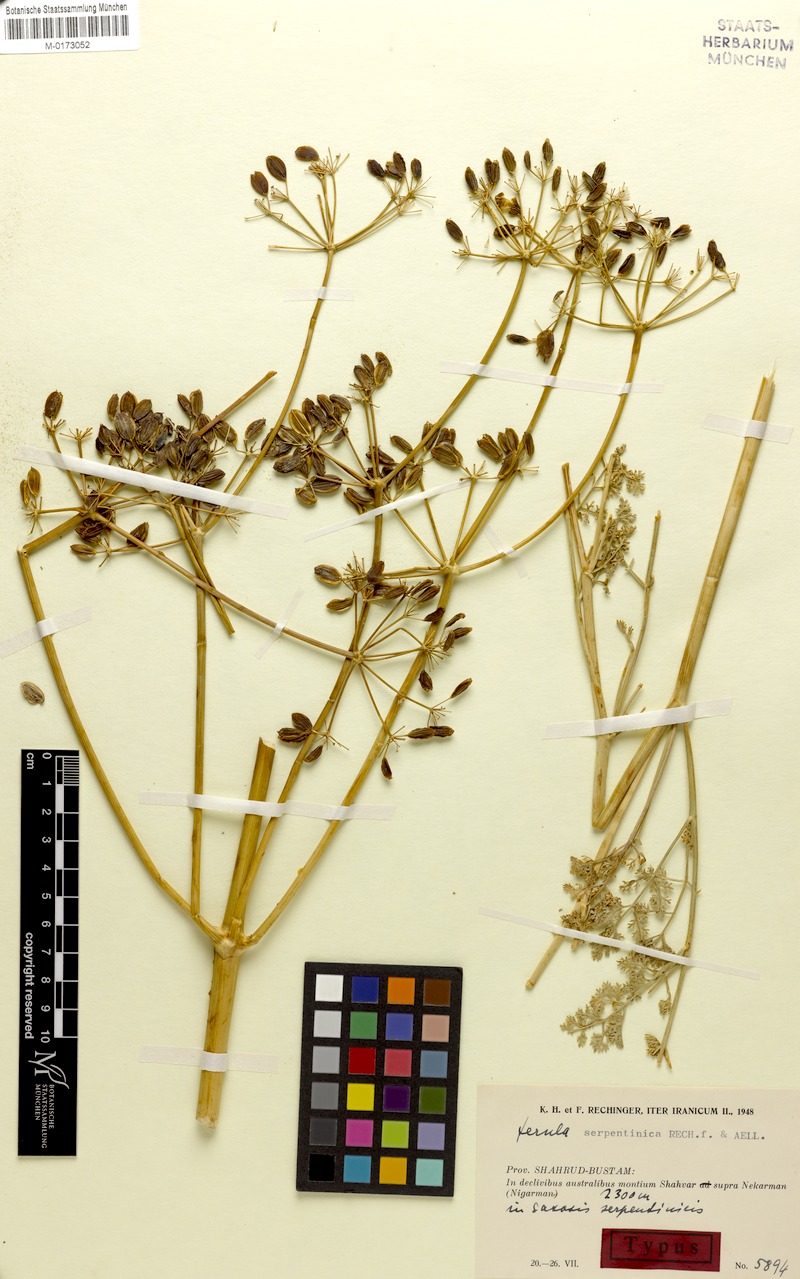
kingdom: Plantae
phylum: Tracheophyta
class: Magnoliopsida
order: Apiales
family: Apiaceae
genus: Ferula
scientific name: Ferula serpentinica
